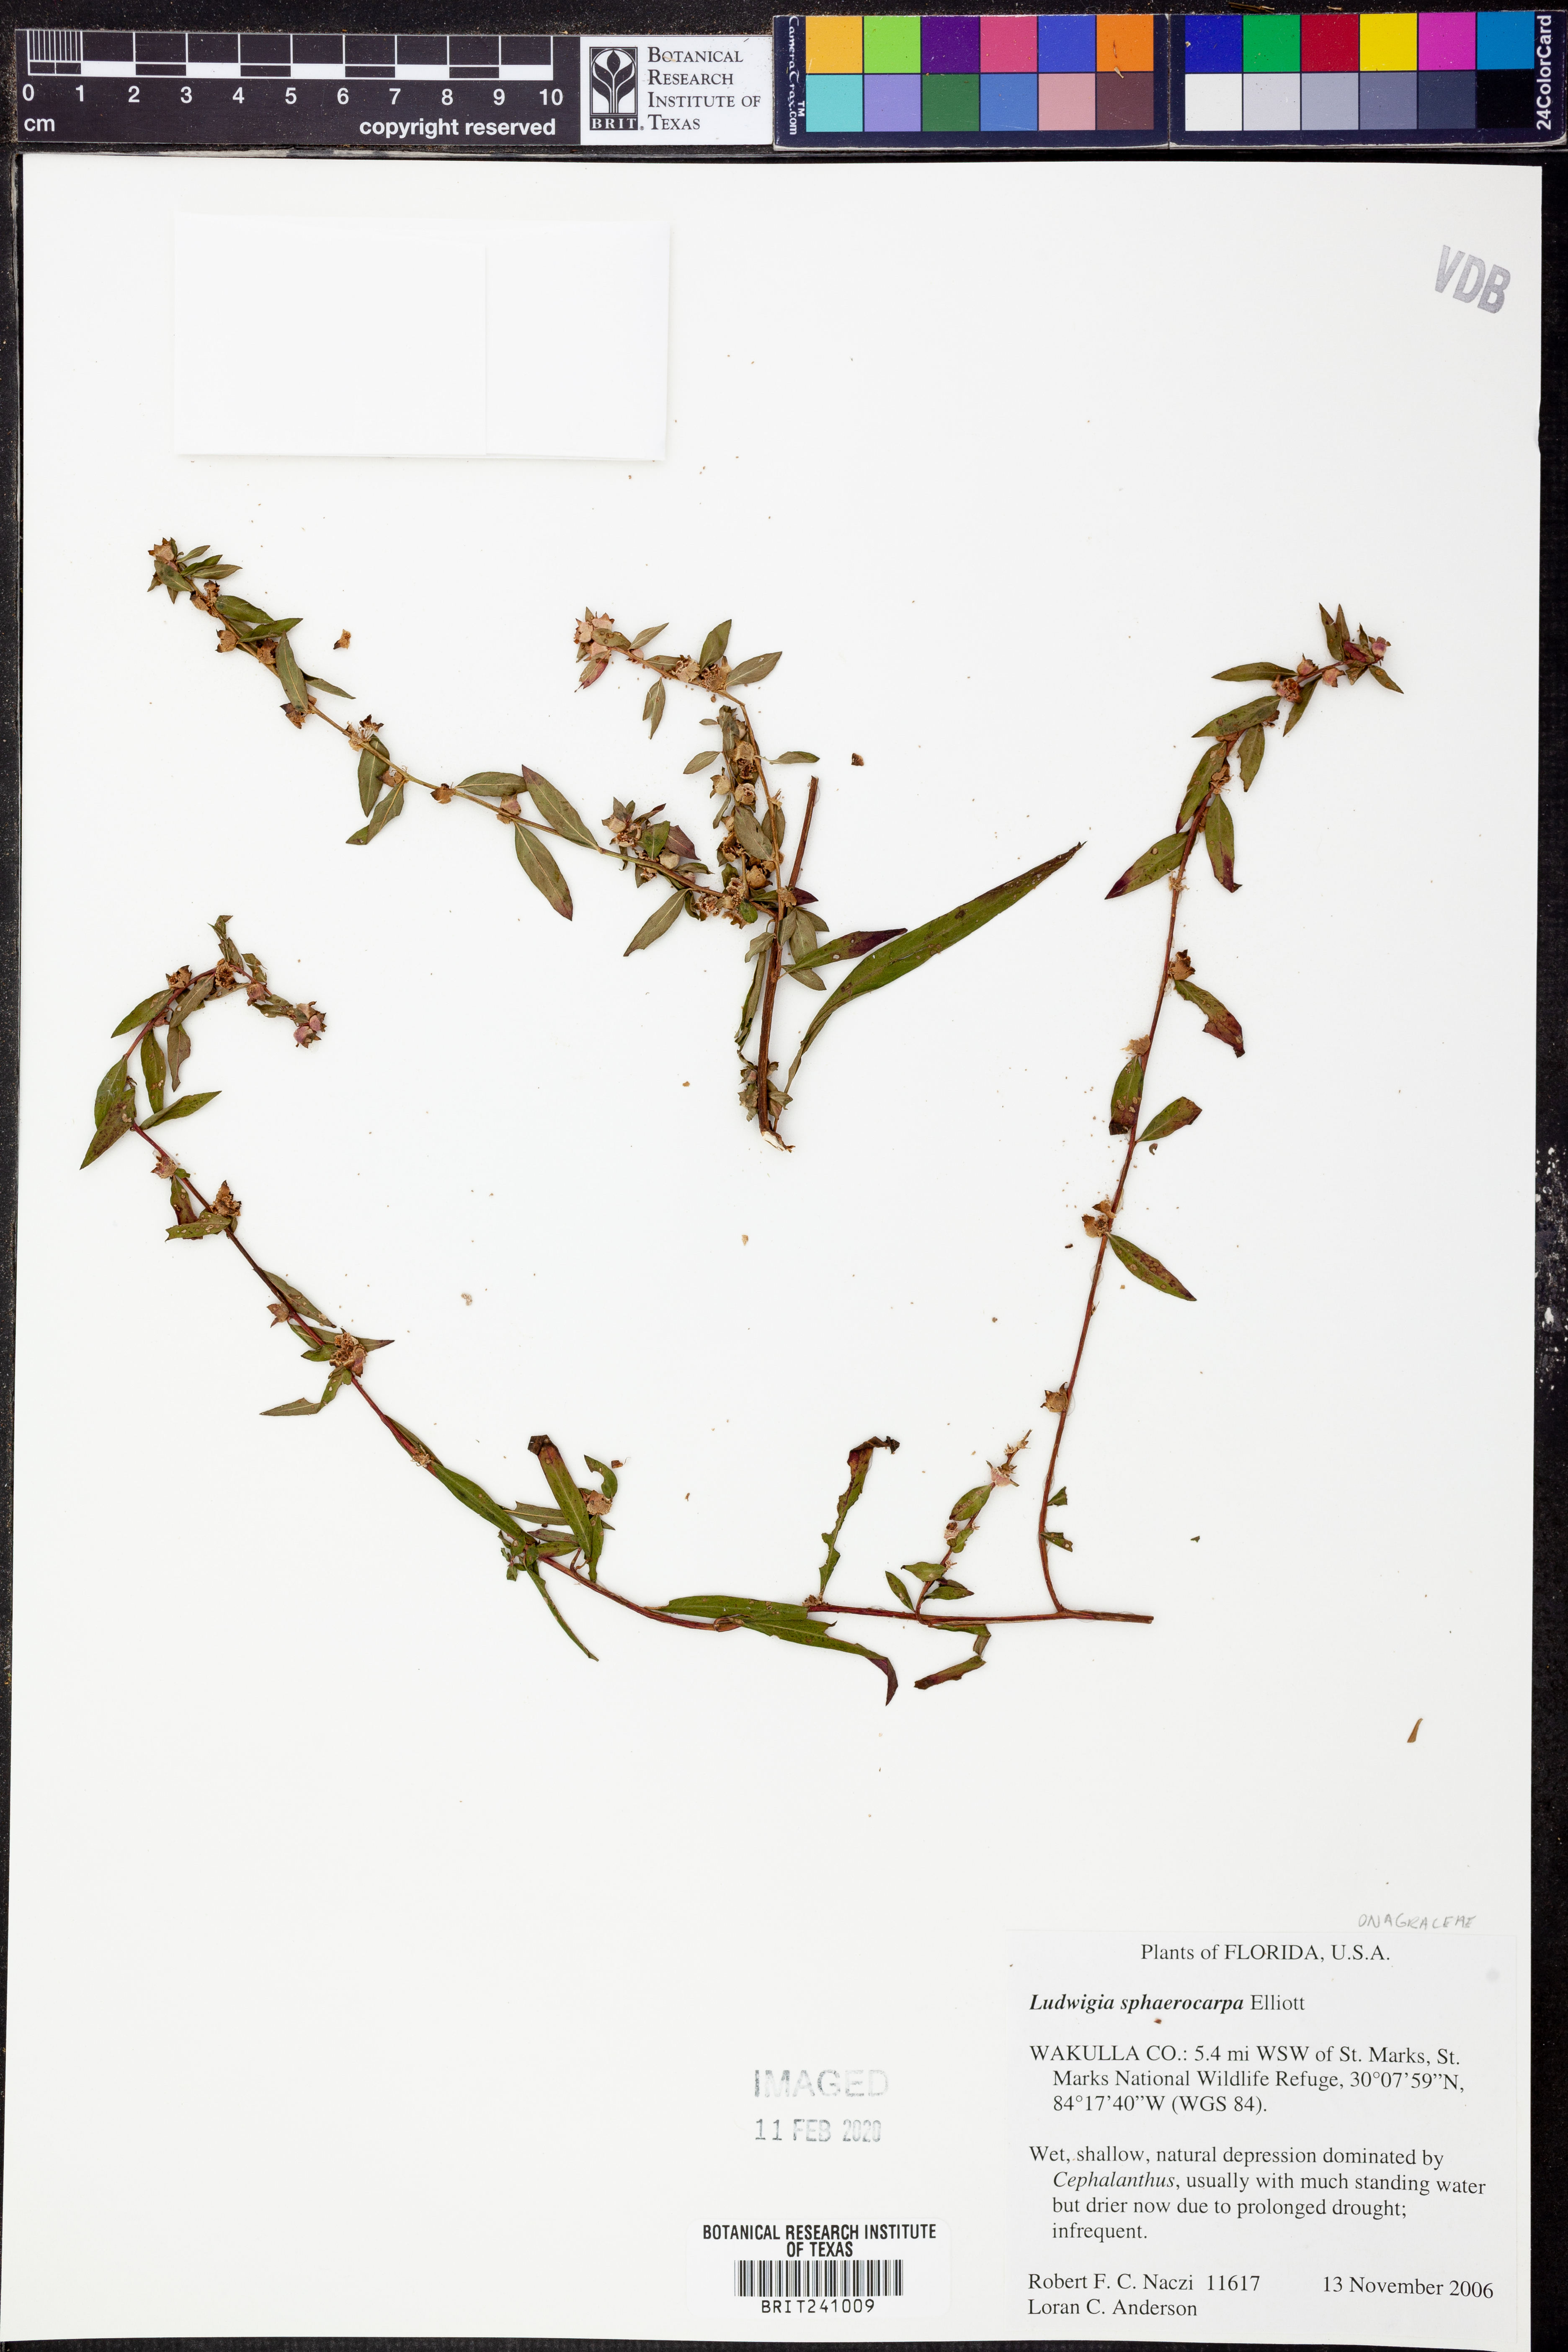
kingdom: Plantae
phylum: Tracheophyta
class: Magnoliopsida
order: Myrtales
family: Onagraceae
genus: Ludwigia
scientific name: Ludwigia sphaerocarpa
